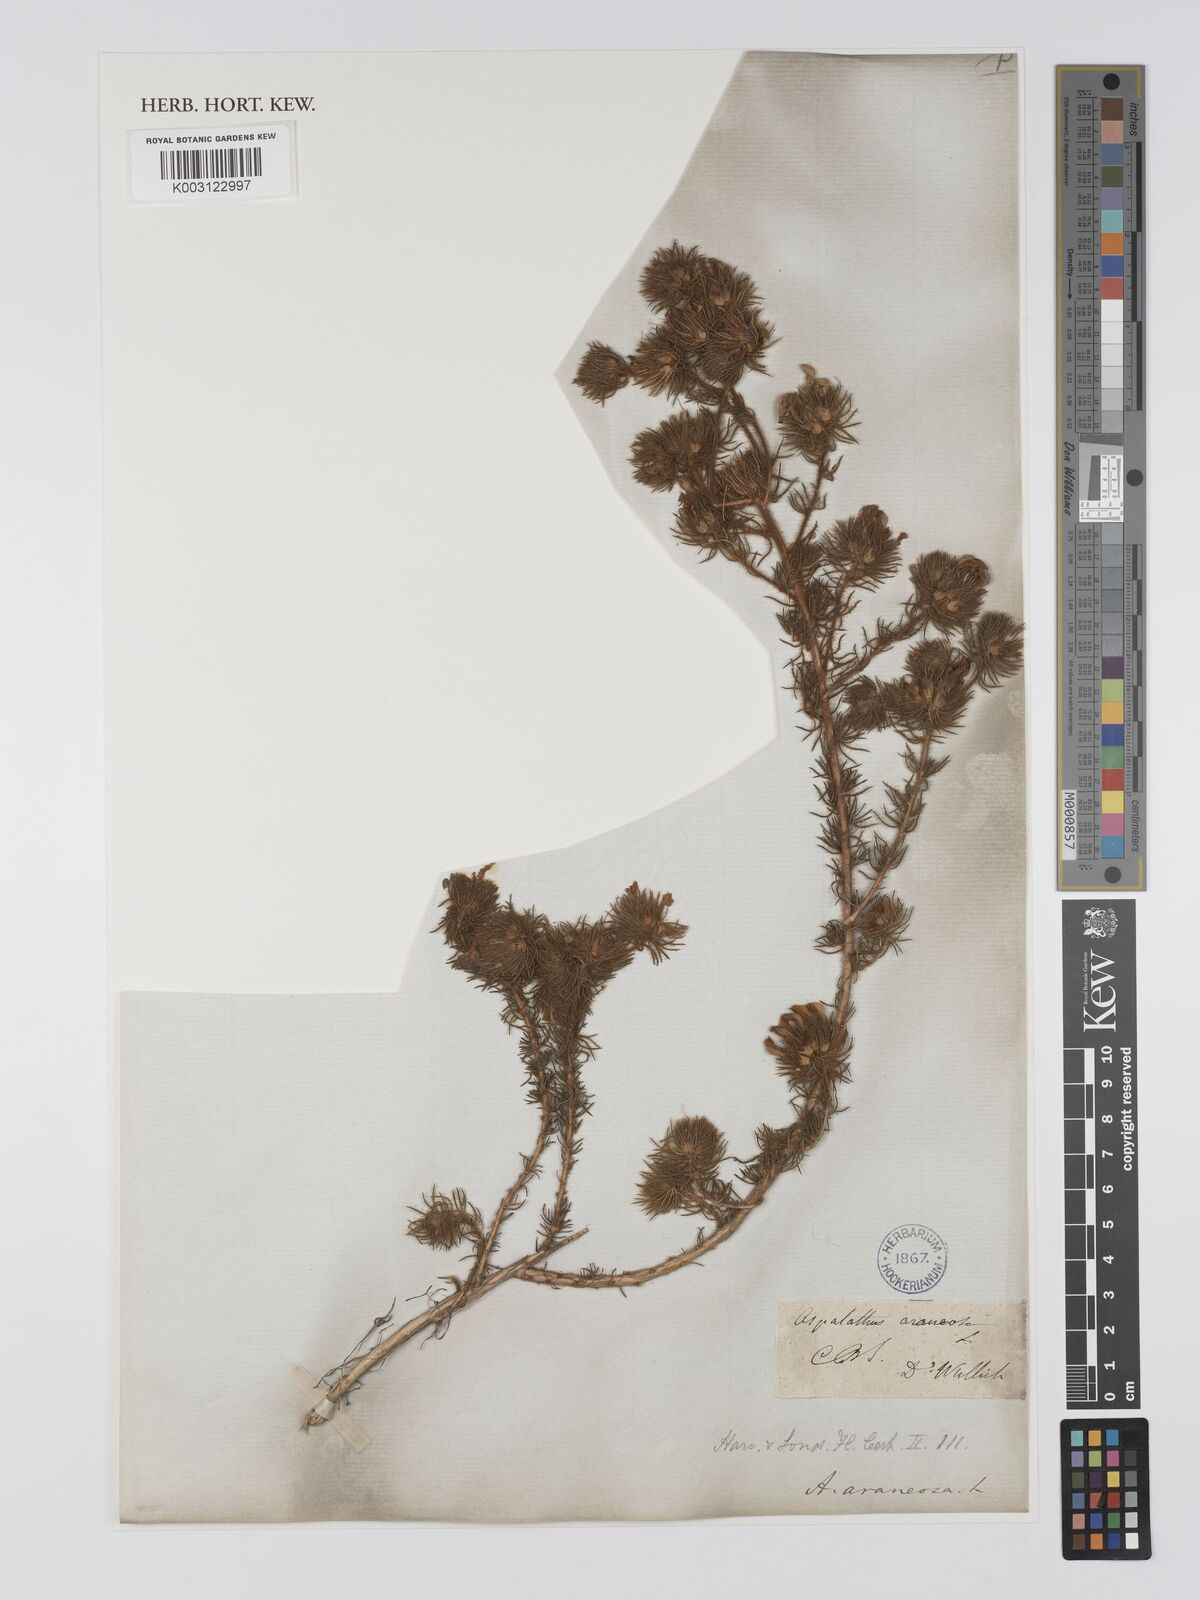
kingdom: Plantae
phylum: Tracheophyta
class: Magnoliopsida
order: Fabales
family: Fabaceae
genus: Aspalathus
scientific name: Aspalathus araneosa
